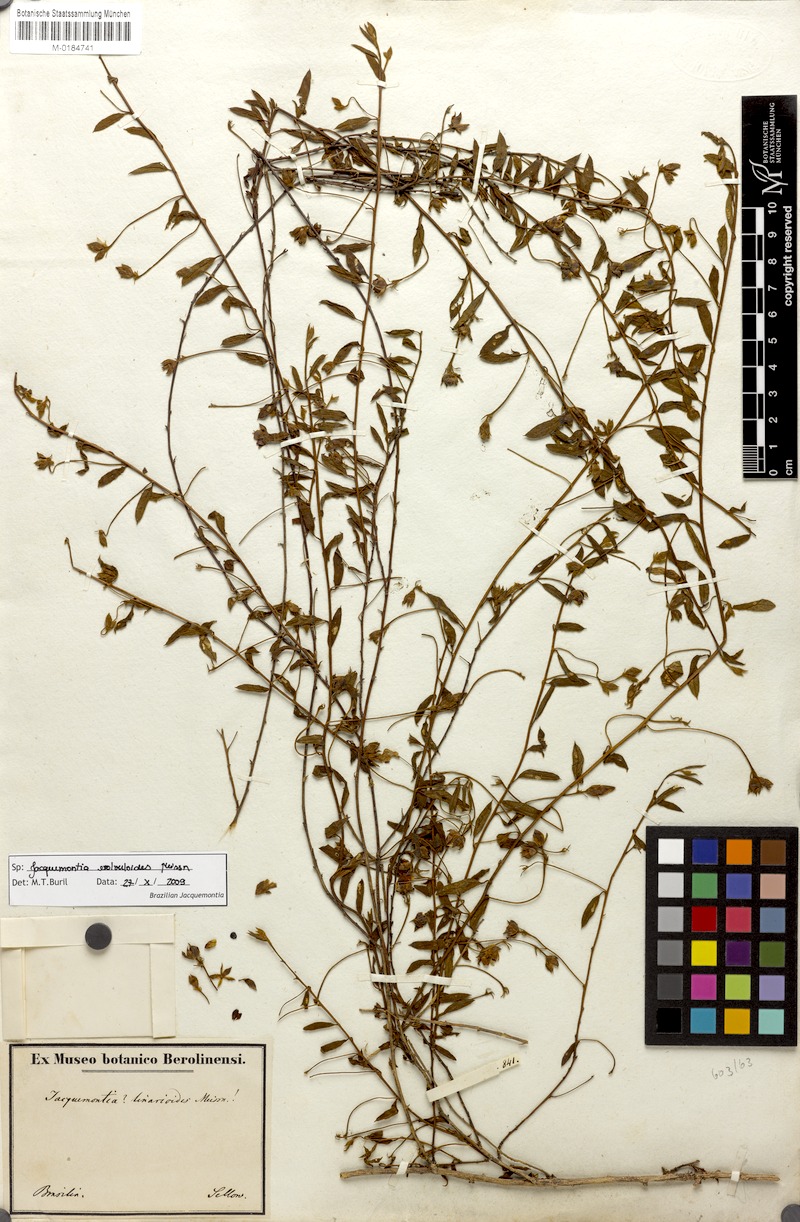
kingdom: Plantae
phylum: Tracheophyta
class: Magnoliopsida
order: Solanales
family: Convolvulaceae
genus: Jacquemontia
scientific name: Jacquemontia evolvuloides
